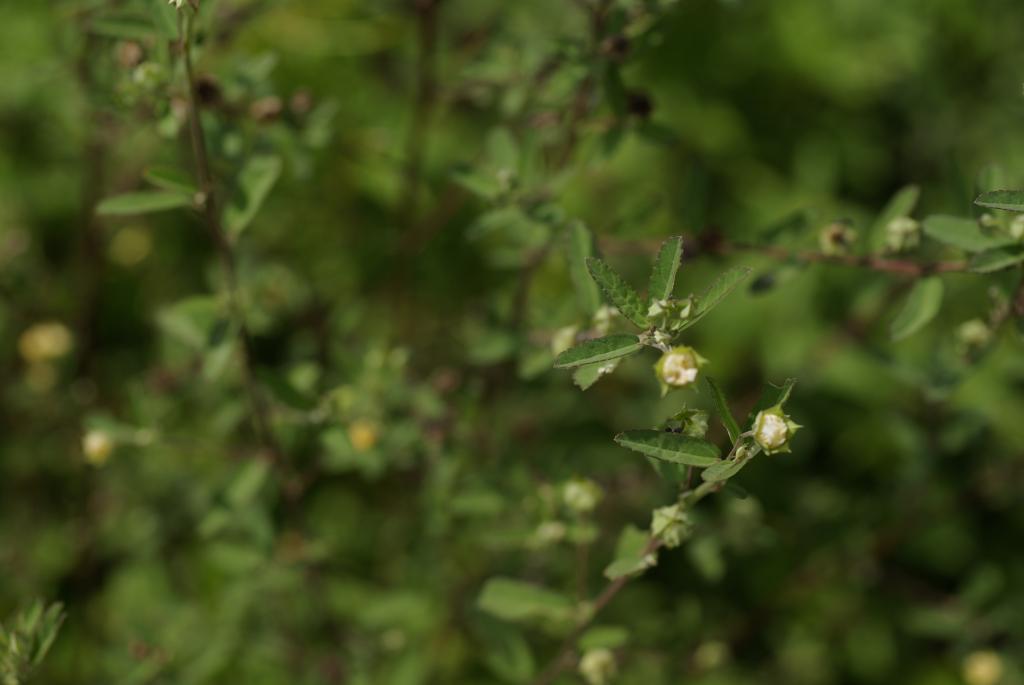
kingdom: Plantae
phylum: Tracheophyta
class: Magnoliopsida
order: Malvales
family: Malvaceae
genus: Sida
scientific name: Sida rhombifolia
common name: Queensland-hemp
